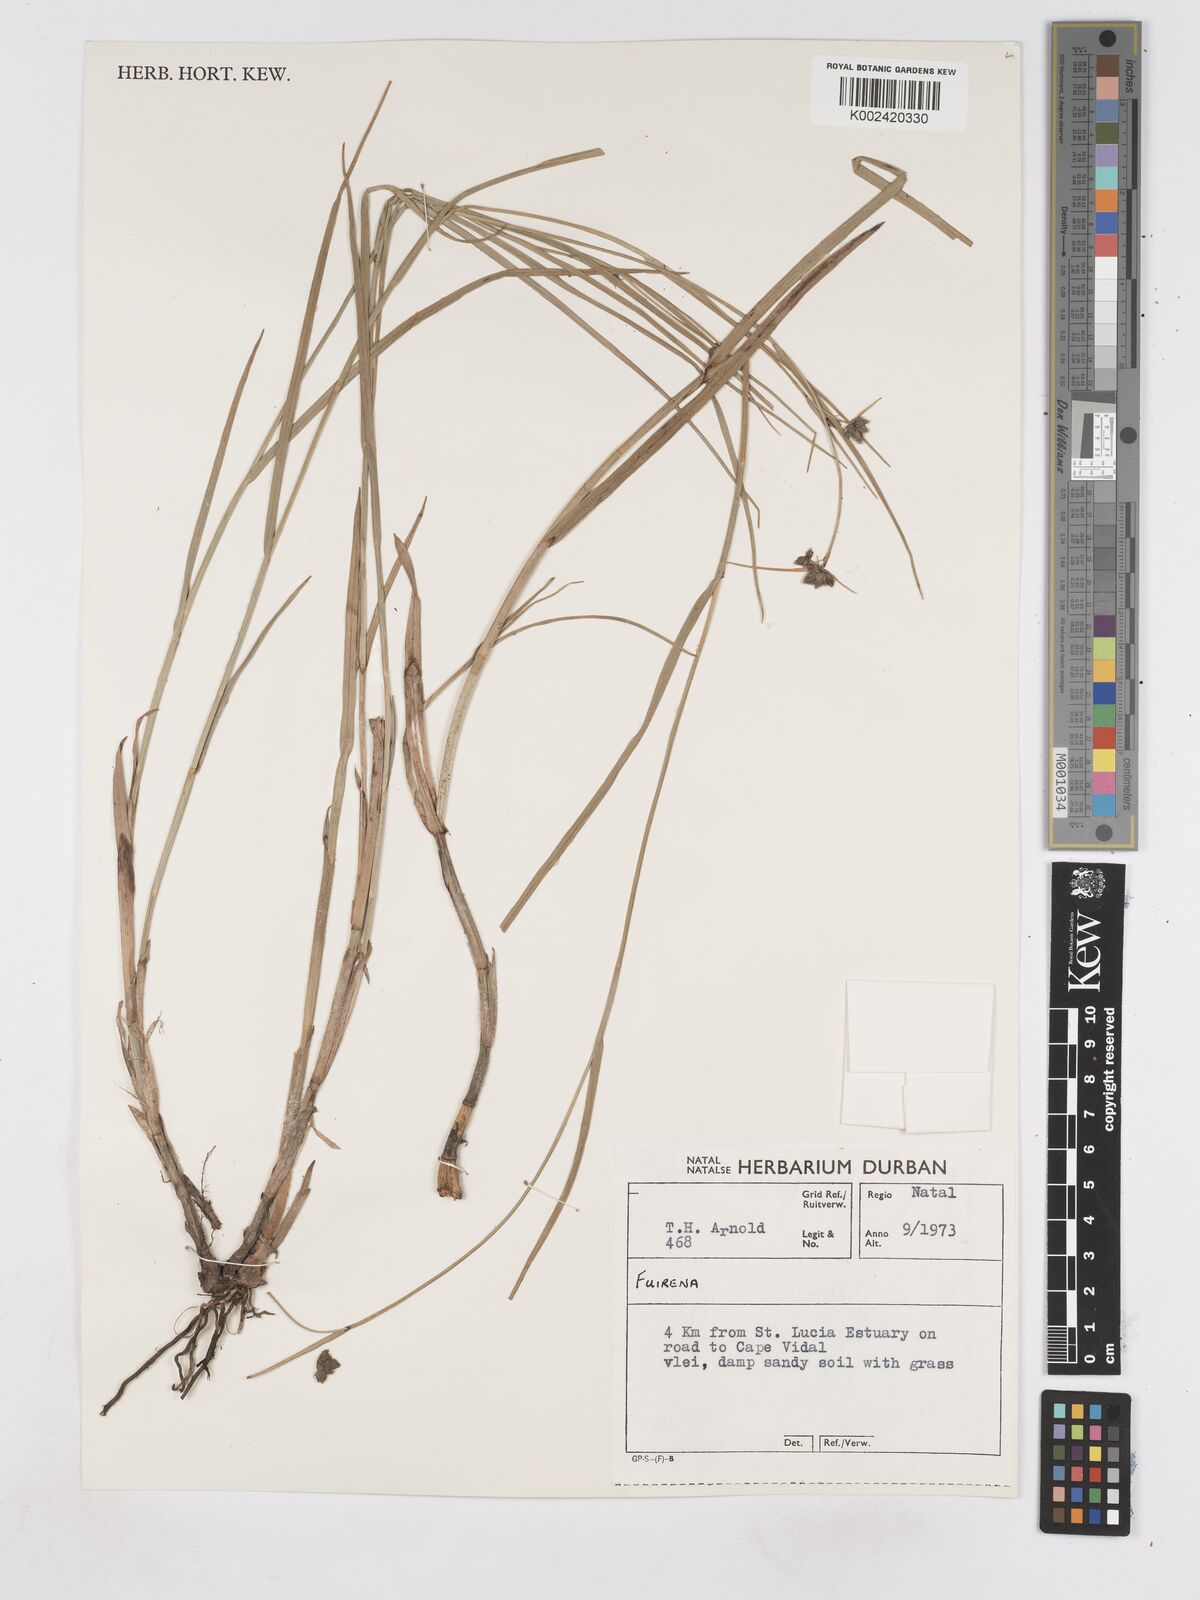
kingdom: Plantae
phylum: Tracheophyta
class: Liliopsida
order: Poales
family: Cyperaceae
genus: Fuirena
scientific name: Fuirena
